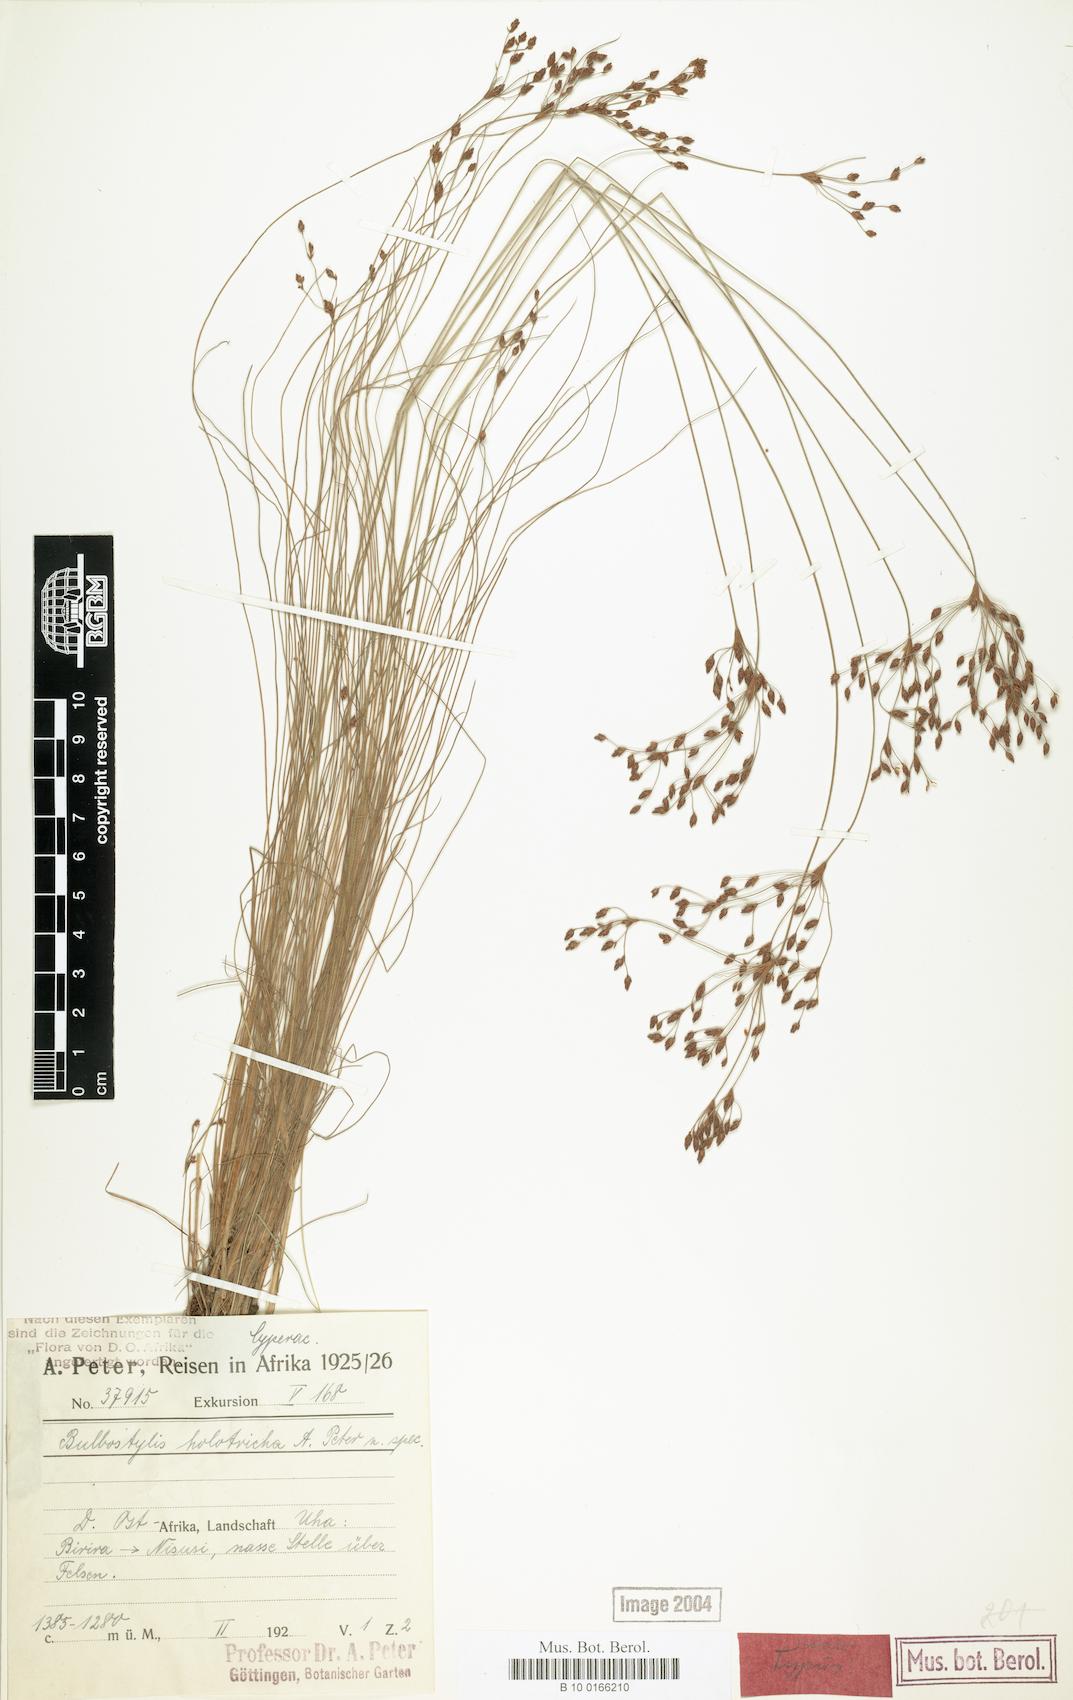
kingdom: Plantae
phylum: Tracheophyta
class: Liliopsida
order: Poales
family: Cyperaceae
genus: Bulbostylis
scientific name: Bulbostylis congolensis
